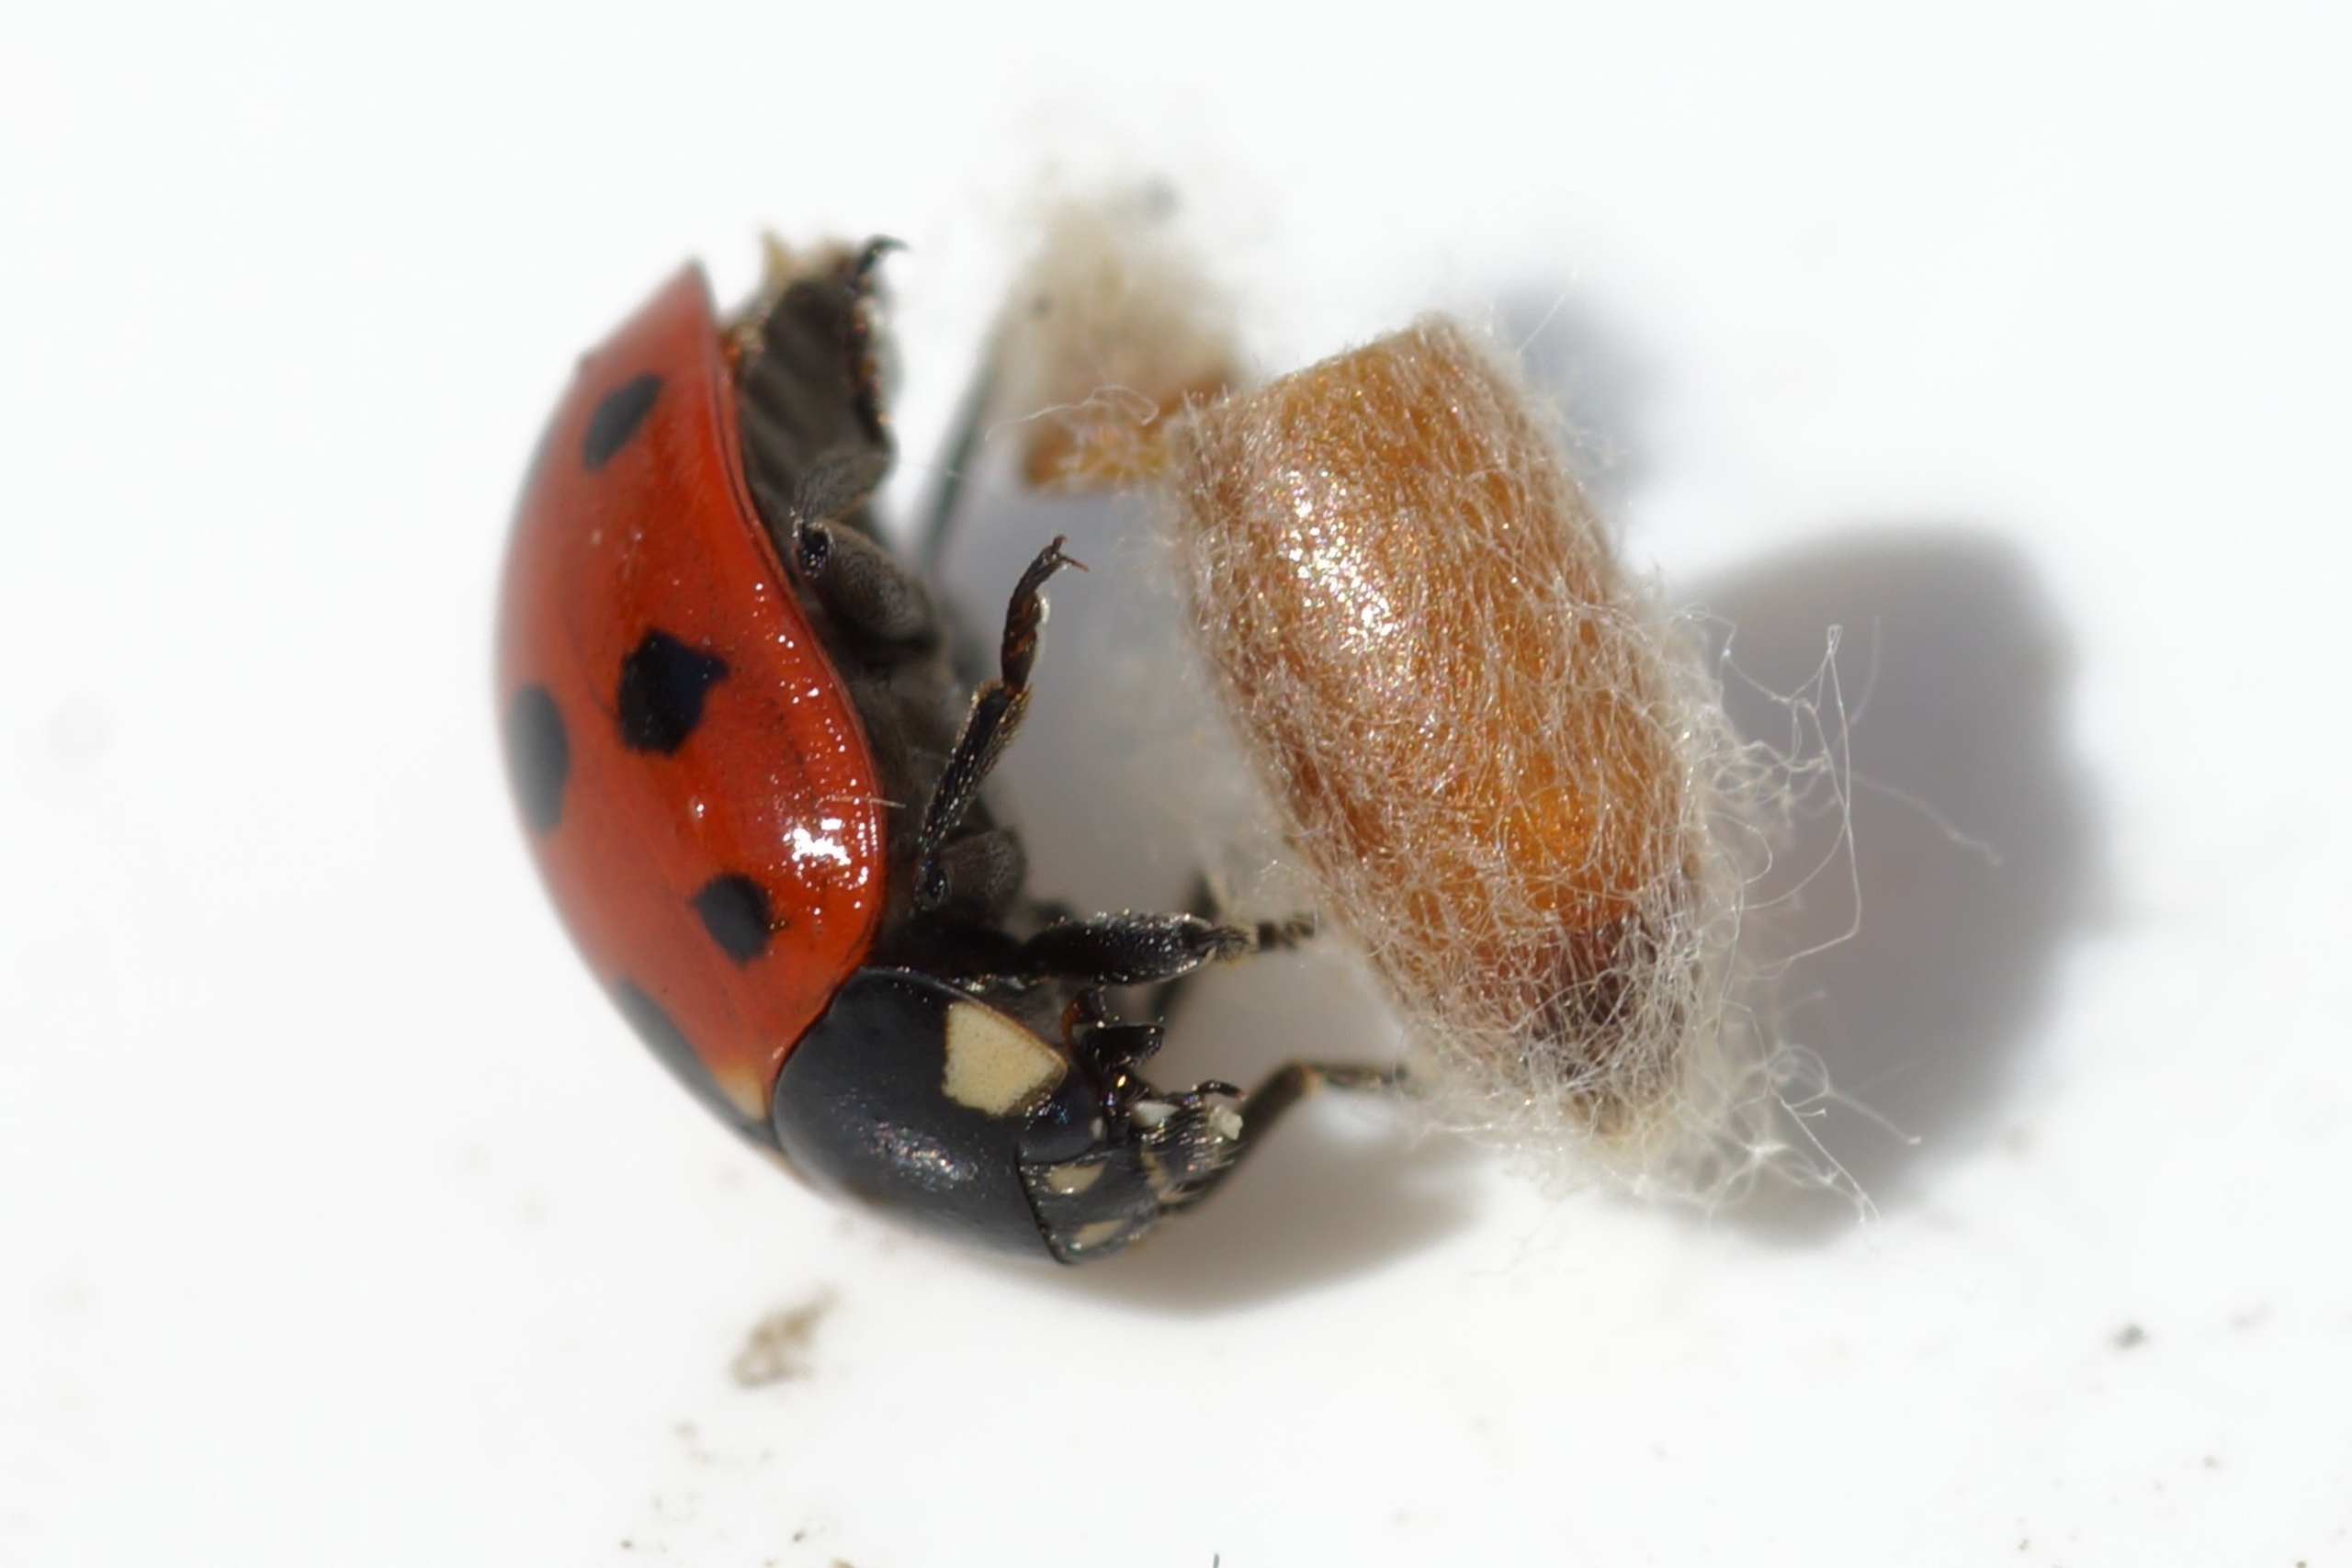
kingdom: Animalia
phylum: Arthropoda
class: Insecta
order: Hymenoptera
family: Braconidae
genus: Dinocampus
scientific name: Dinocampus coccinellae
